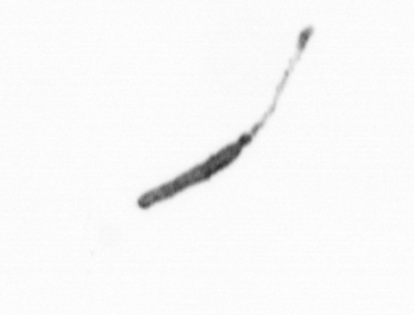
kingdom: Chromista
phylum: Ochrophyta
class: Bacillariophyceae
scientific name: Bacillariophyceae
